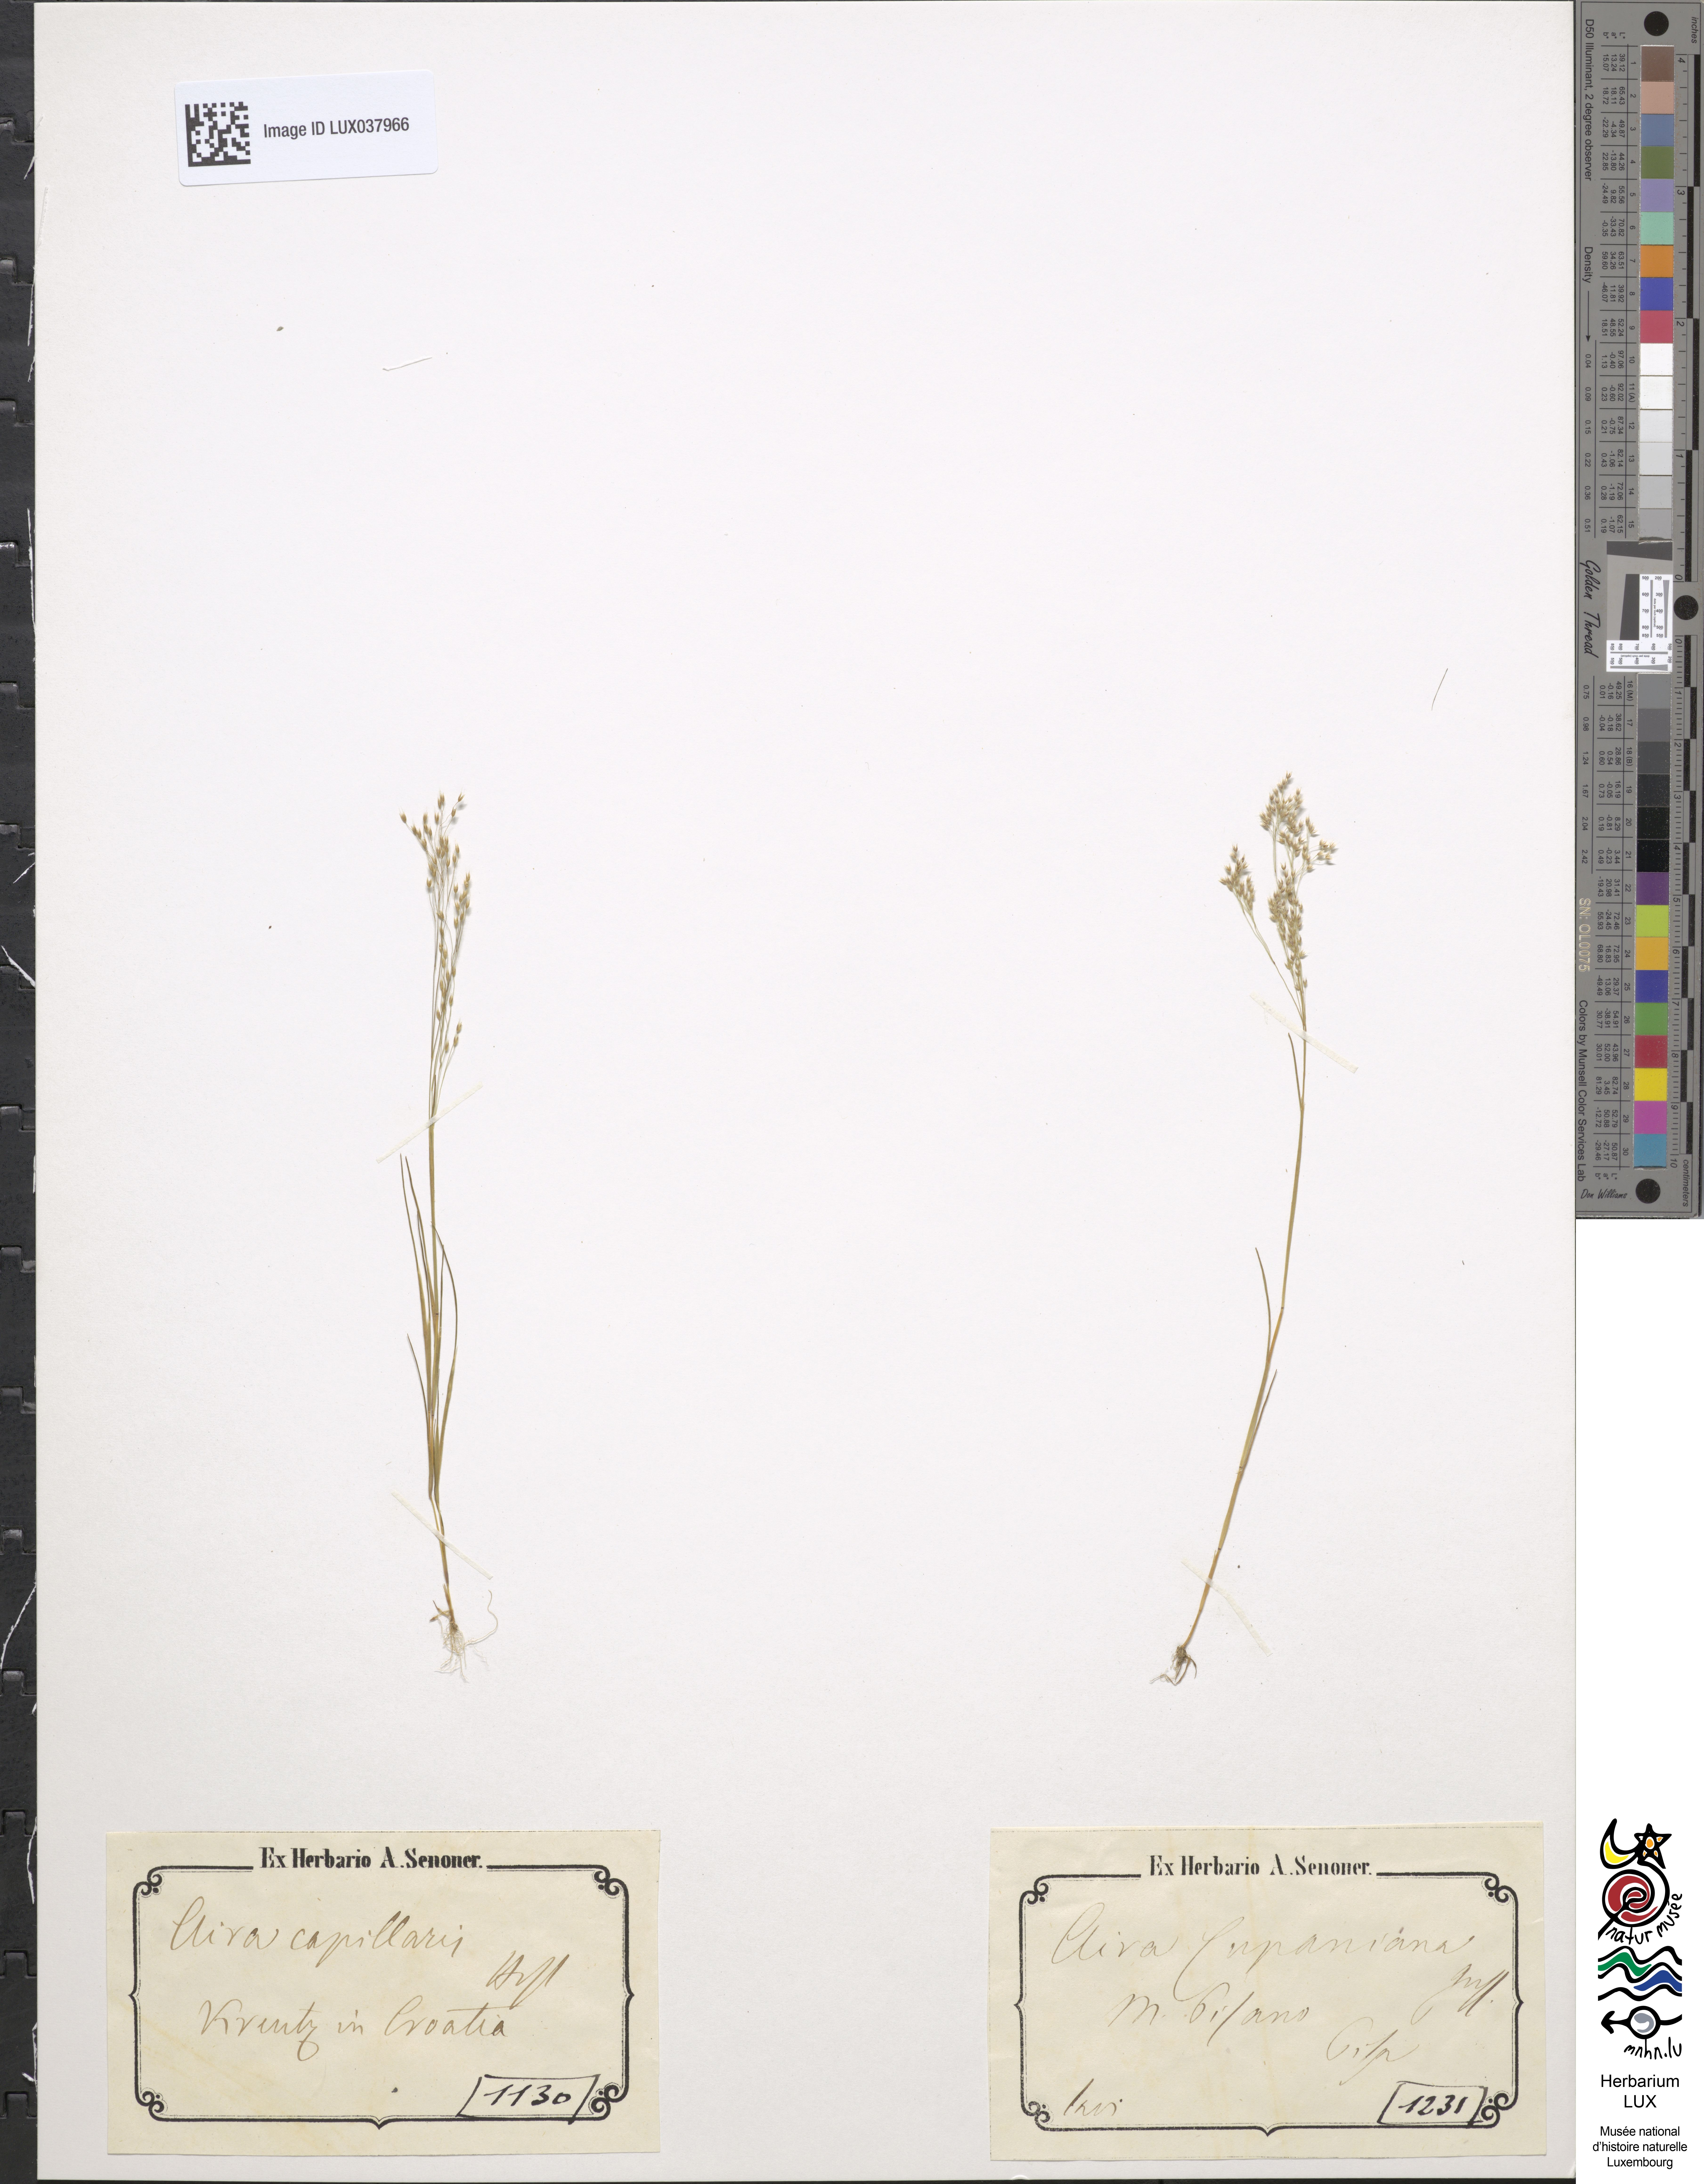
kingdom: Plantae
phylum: Tracheophyta
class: Liliopsida
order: Poales
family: Poaceae
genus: Aira
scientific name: Aira cupaniana
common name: Silver hairgrass
